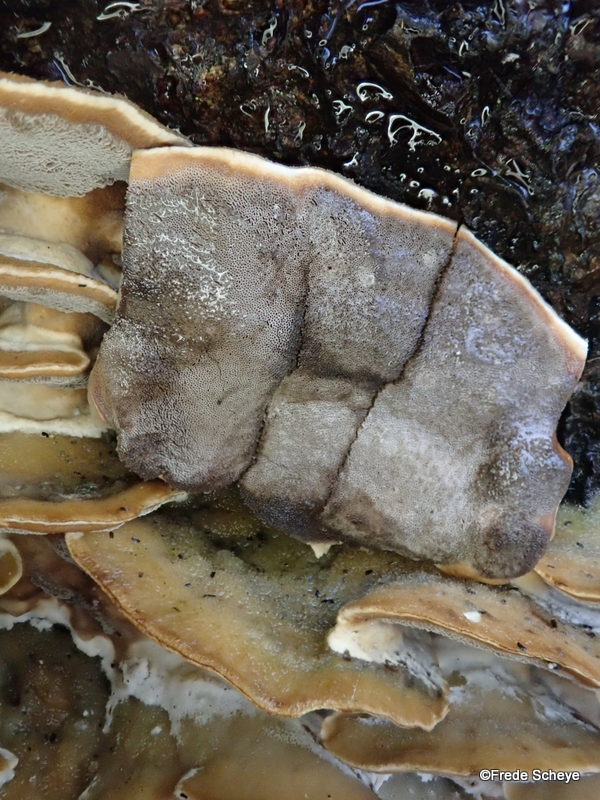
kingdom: Fungi
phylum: Basidiomycota
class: Agaricomycetes
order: Polyporales
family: Phanerochaetaceae
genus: Bjerkandera
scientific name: Bjerkandera adusta
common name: sveden sodporesvamp
